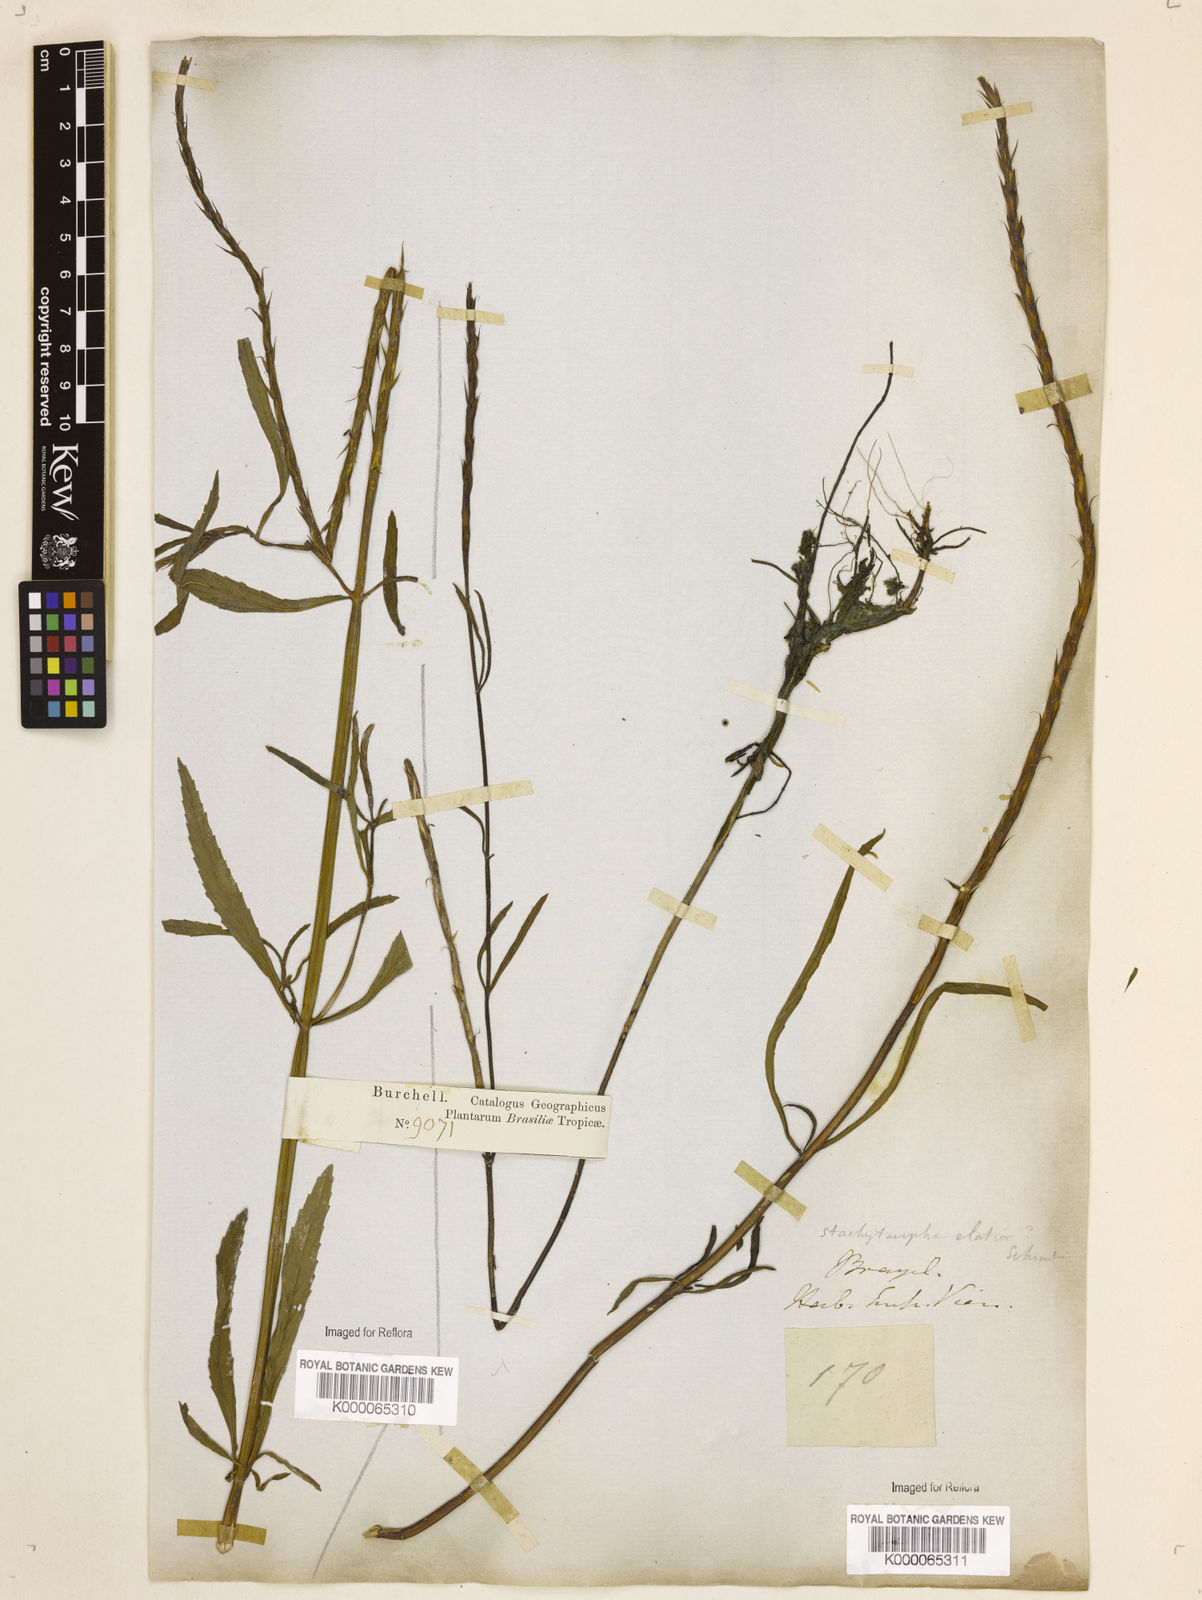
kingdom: Plantae
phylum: Tracheophyta
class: Magnoliopsida
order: Lamiales
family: Verbenaceae
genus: Stachytarpheta
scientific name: Stachytarpheta indica
